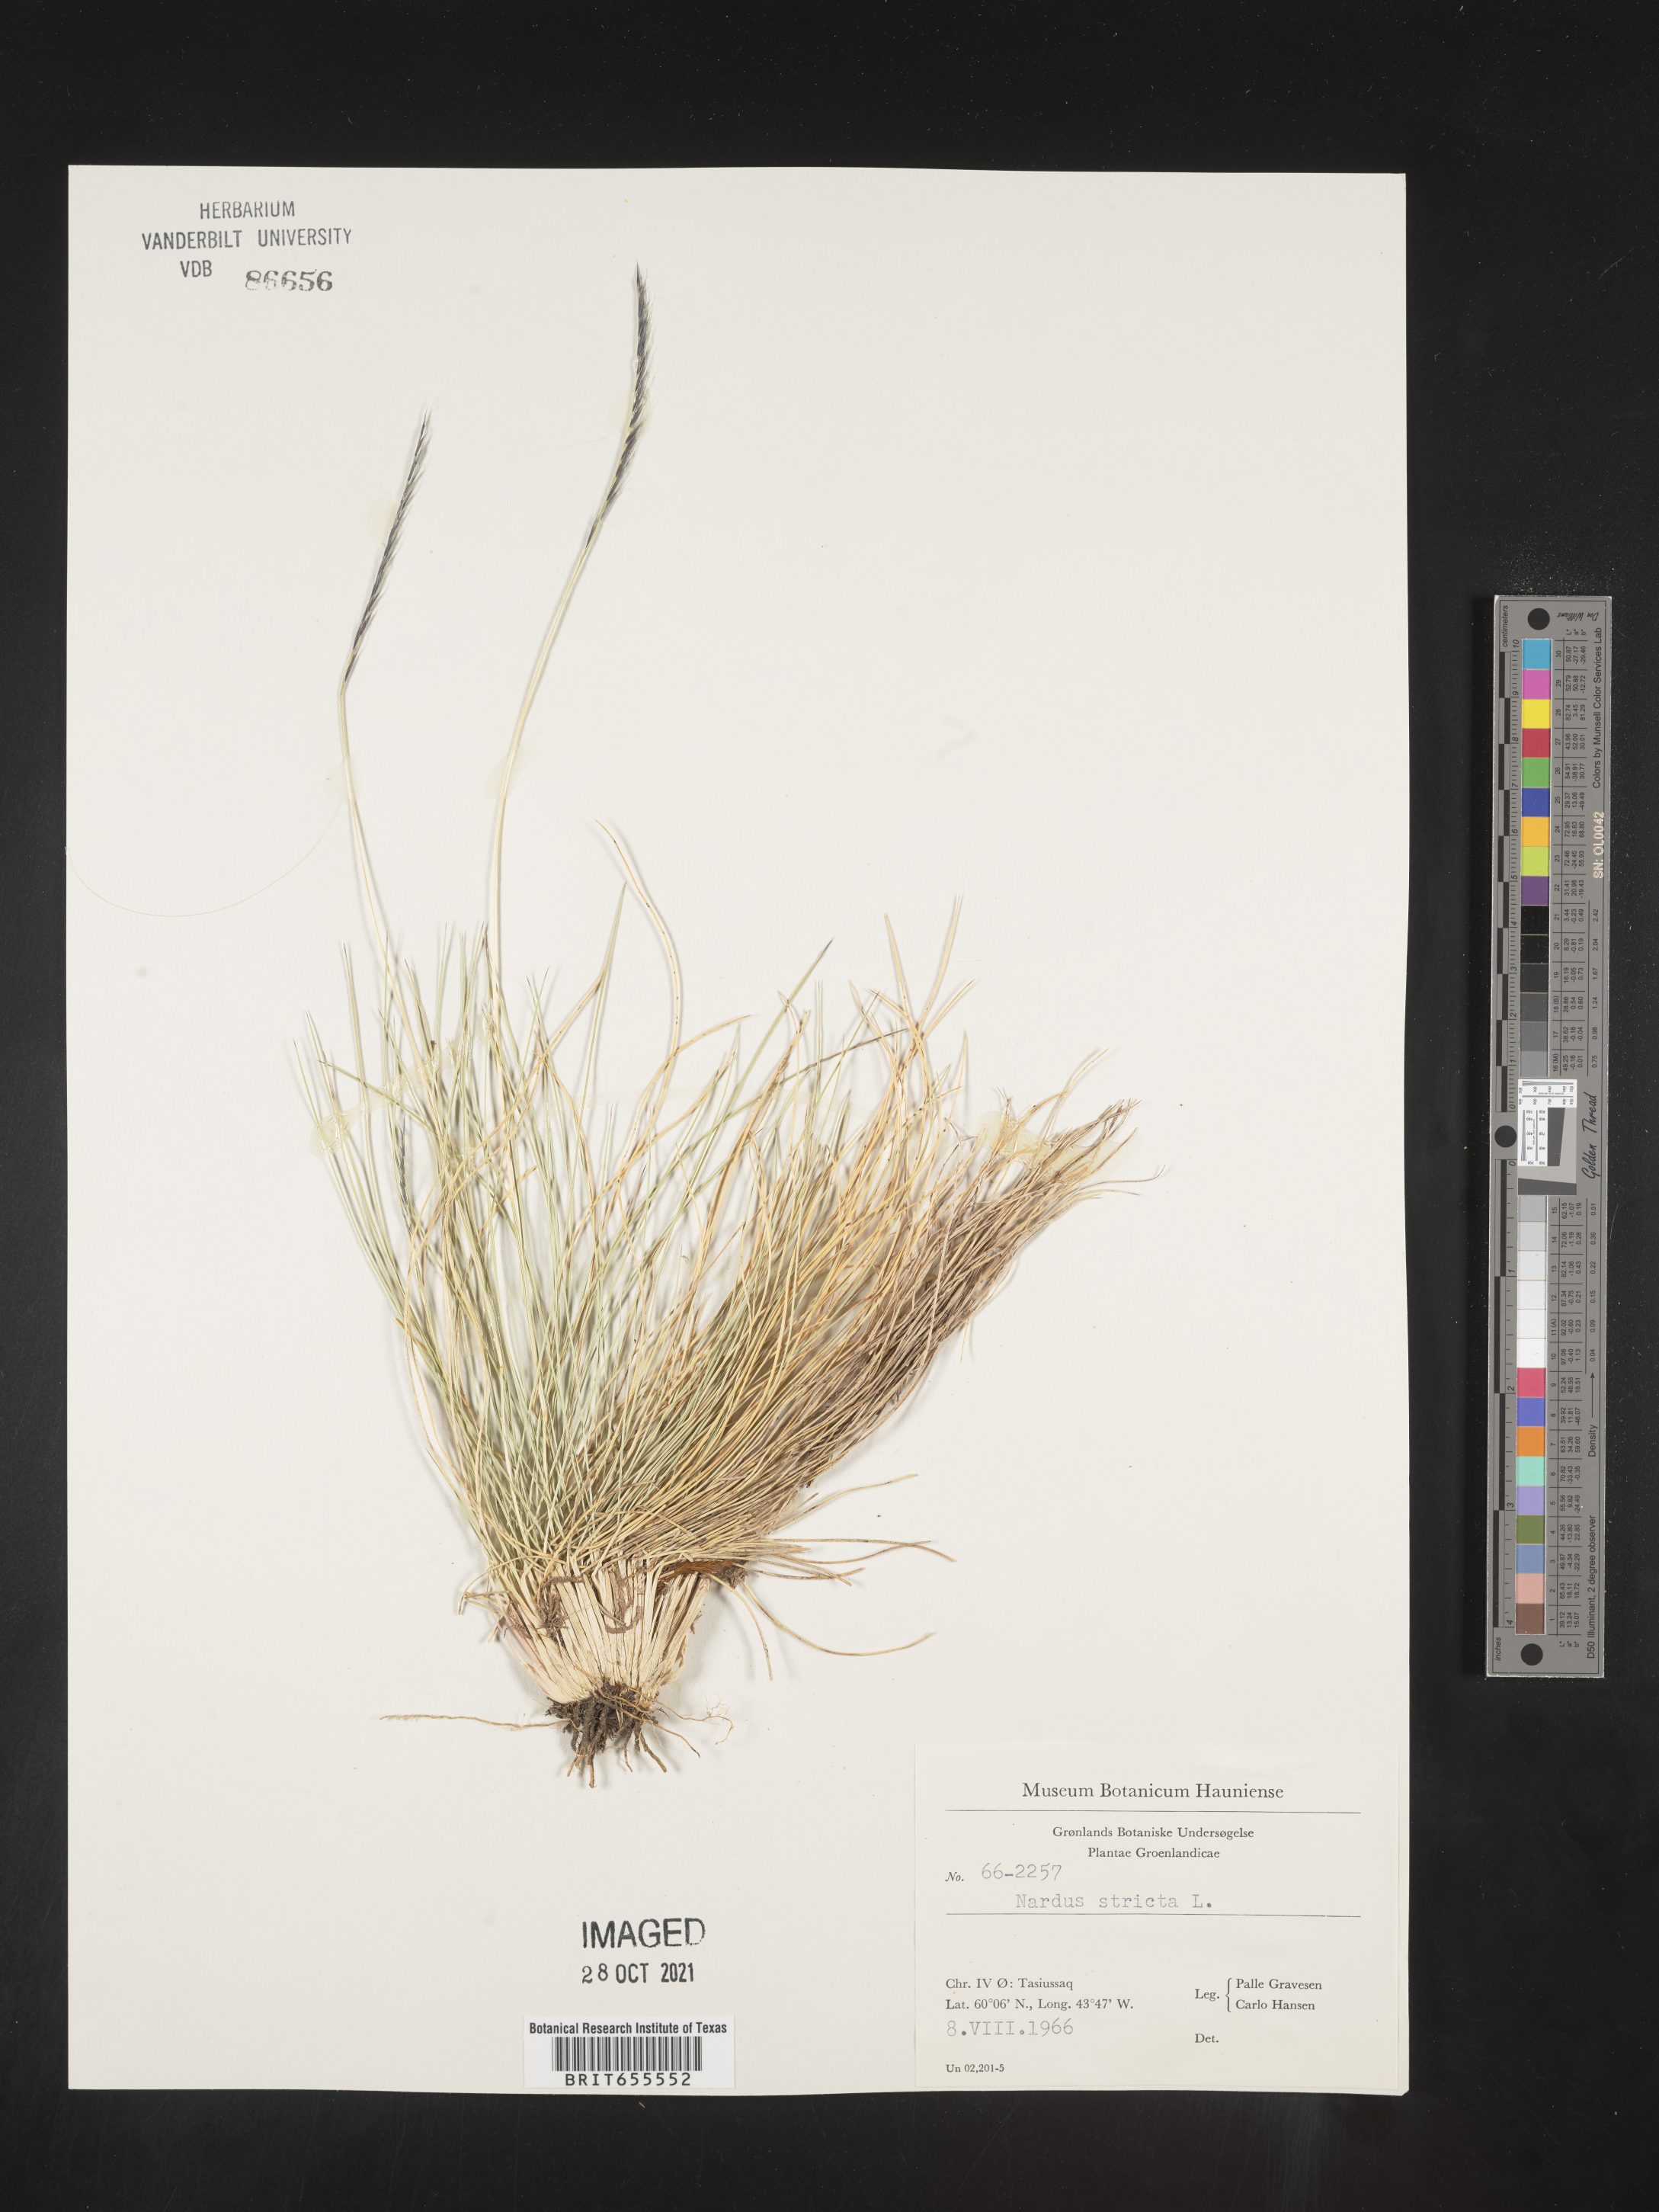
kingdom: Plantae
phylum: Tracheophyta
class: Liliopsida
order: Poales
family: Poaceae
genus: Nardus
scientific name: Nardus
